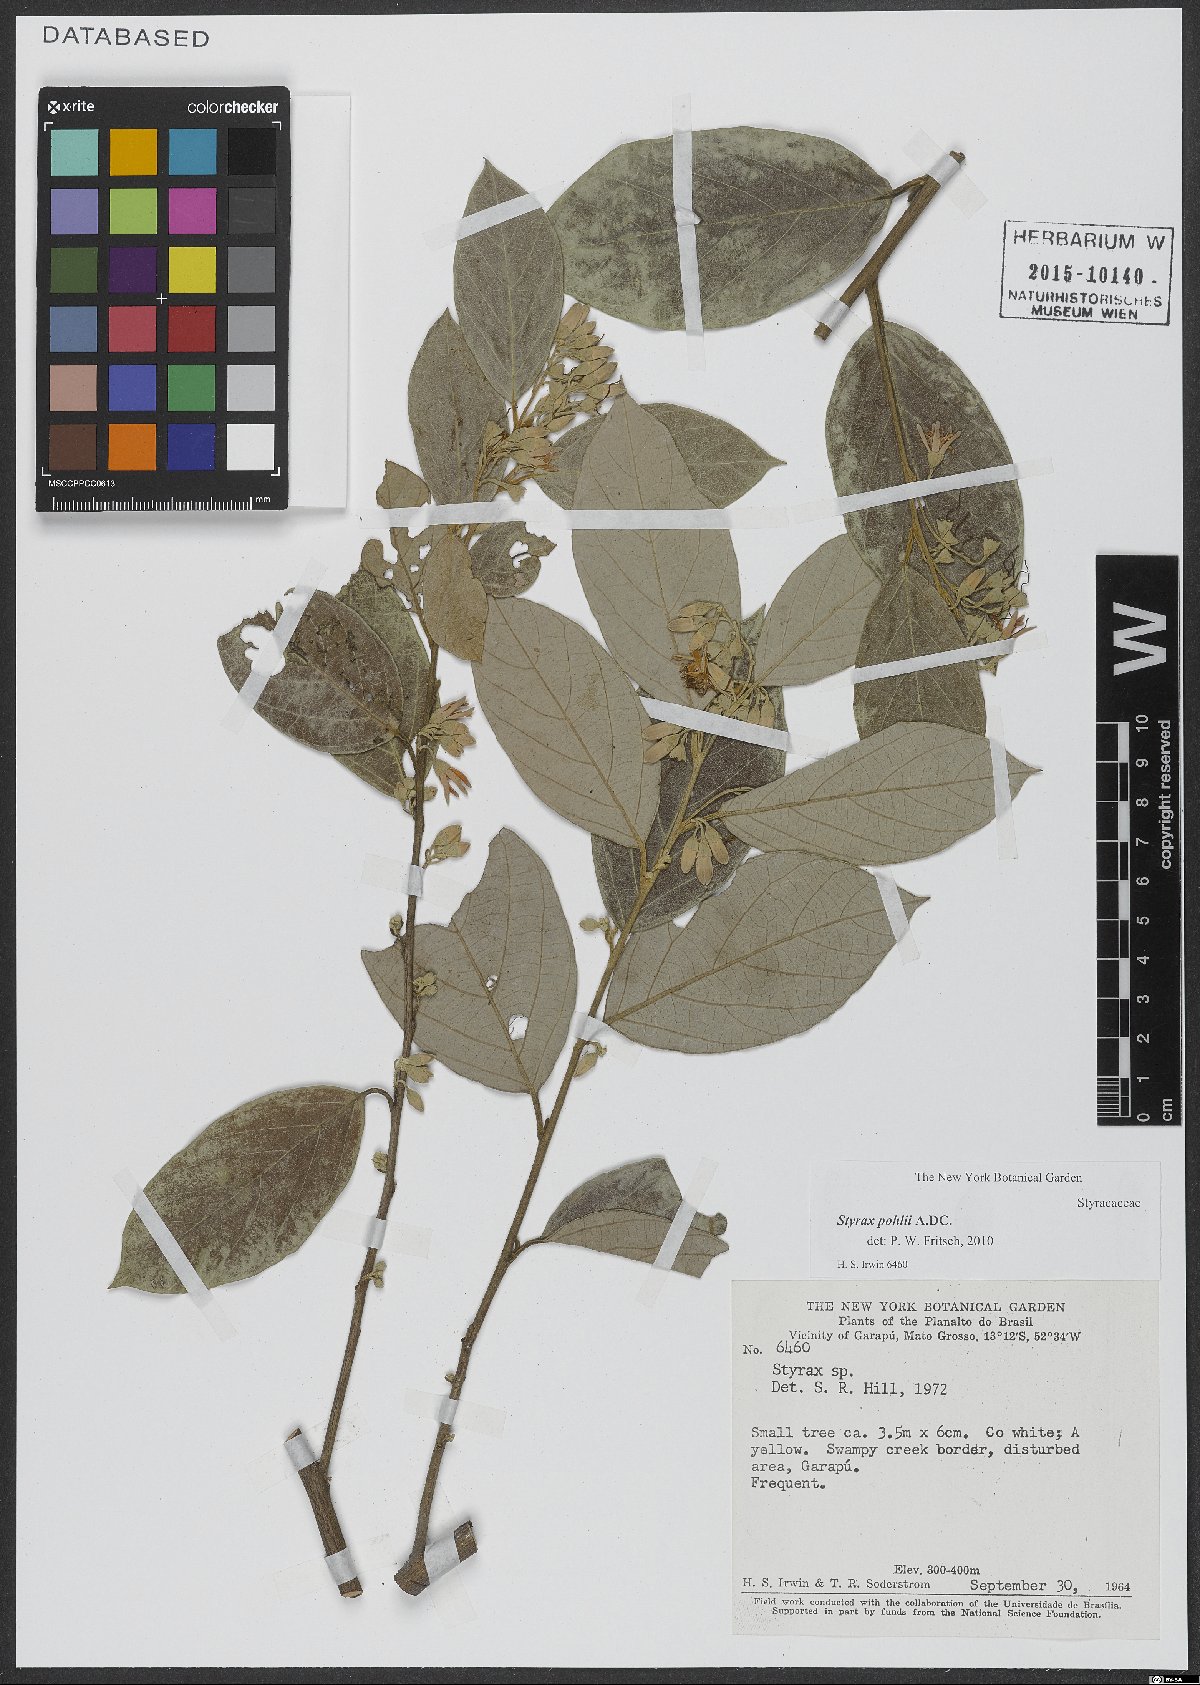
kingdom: Plantae
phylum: Tracheophyta
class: Magnoliopsida
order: Ericales
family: Styracaceae
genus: Styrax
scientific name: Styrax pohlii
